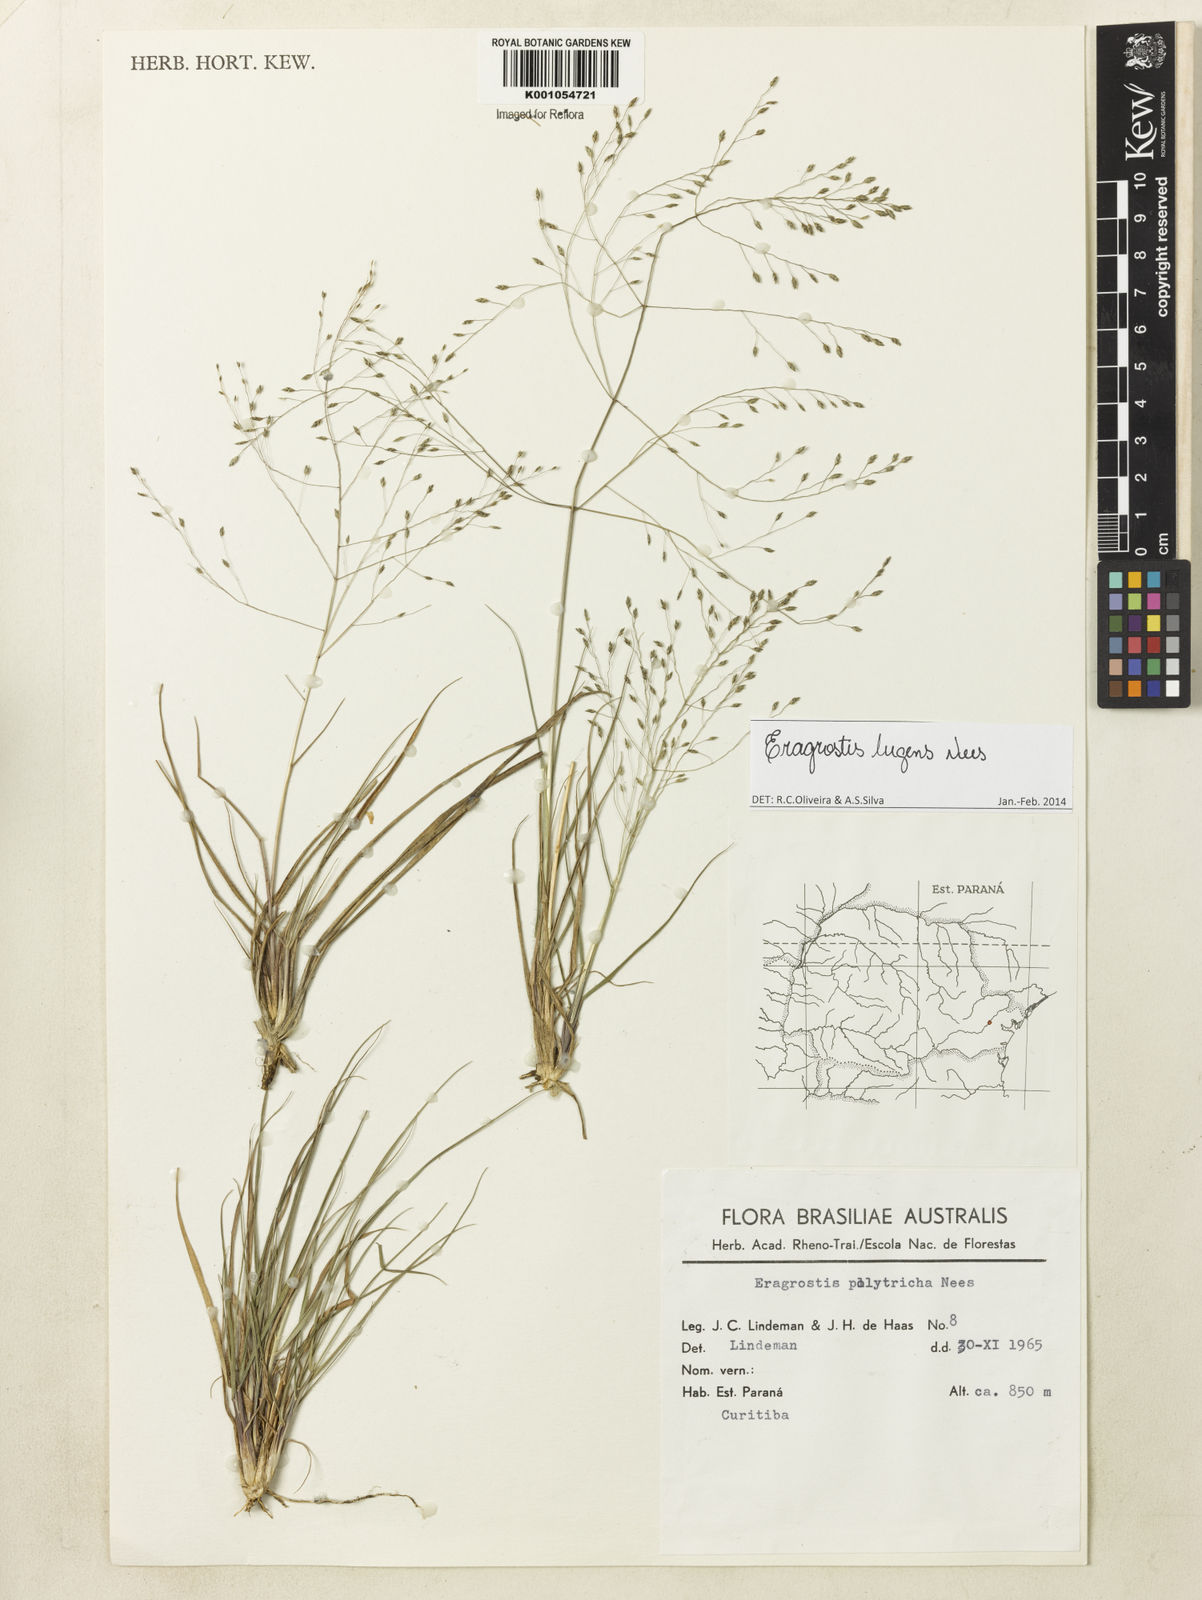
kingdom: Plantae
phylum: Tracheophyta
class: Liliopsida
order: Poales
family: Poaceae
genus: Eragrostis
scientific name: Eragrostis lugens
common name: Mourning love grass
